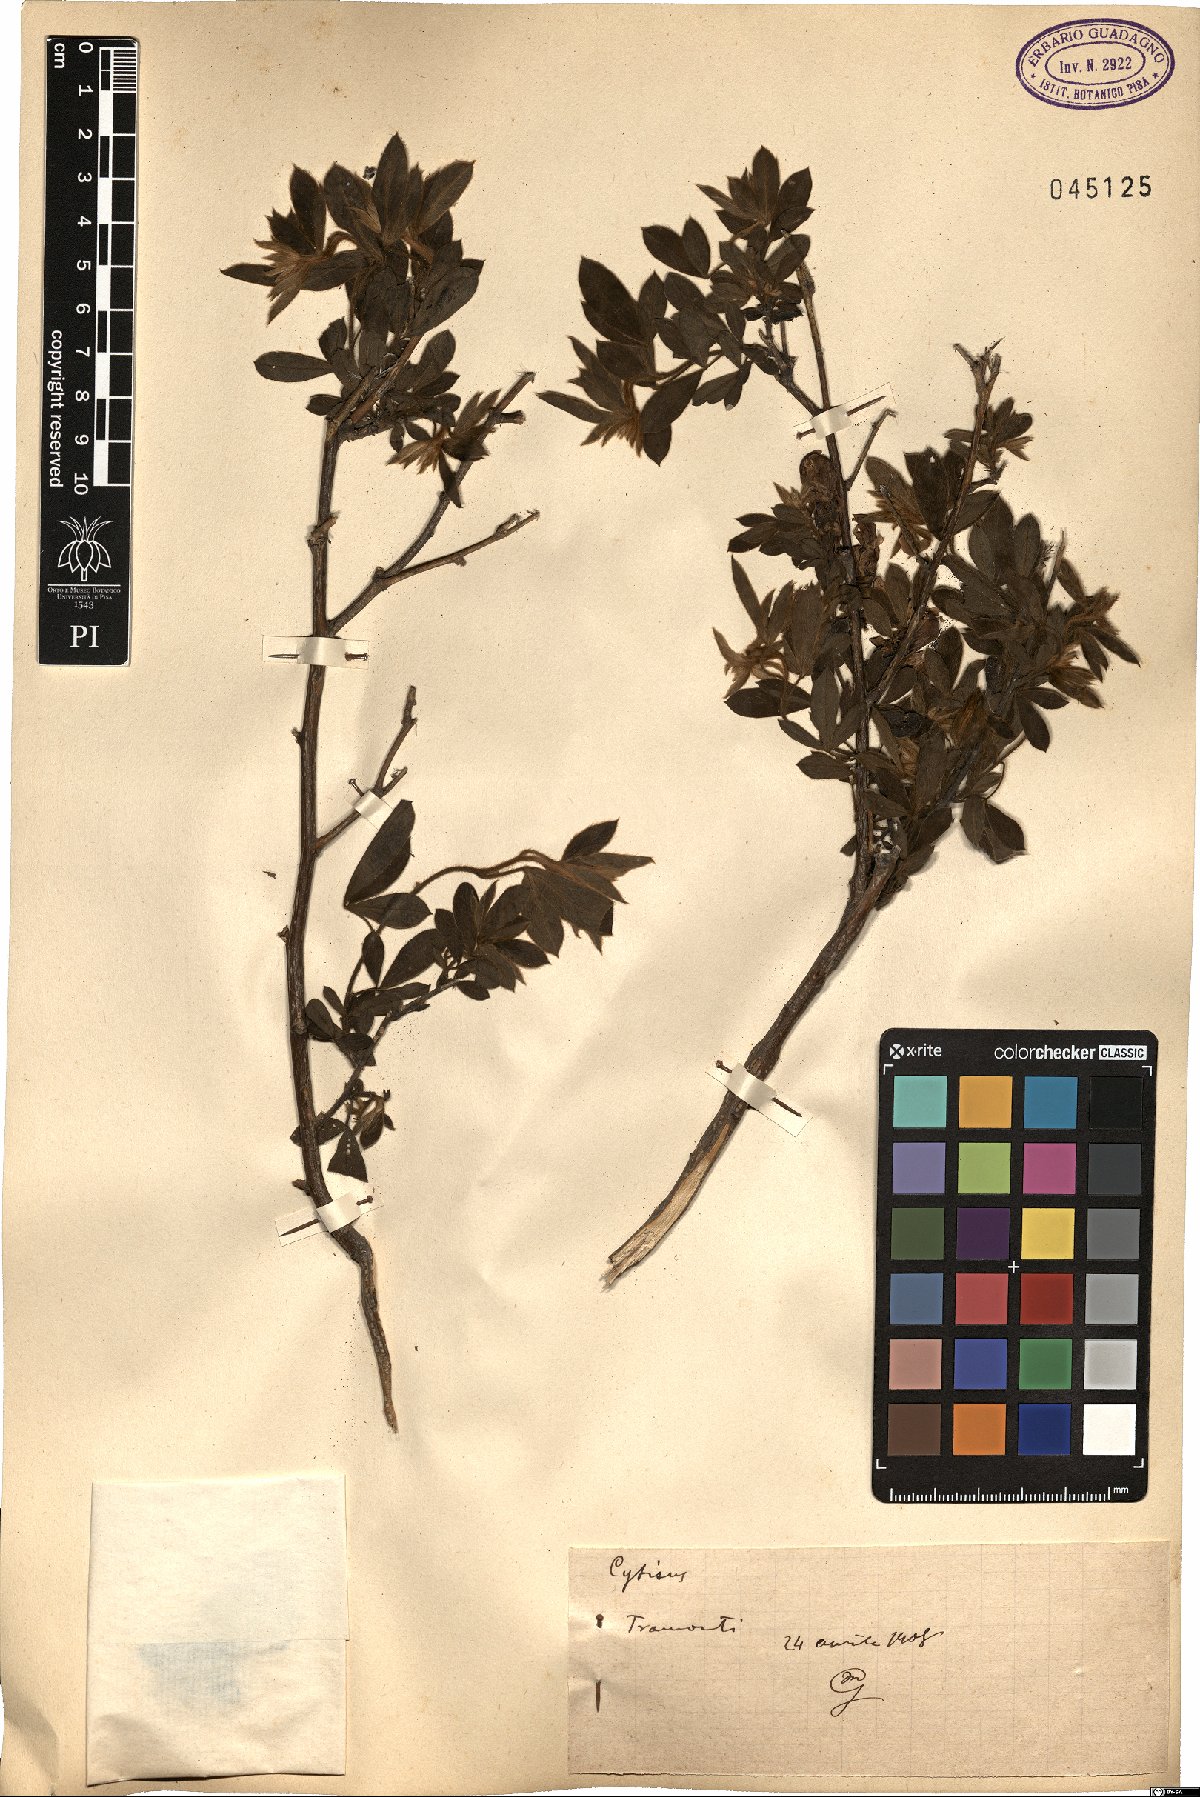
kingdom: Plantae
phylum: Tracheophyta
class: Magnoliopsida
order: Fabales
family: Fabaceae
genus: Cytisus
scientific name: Cytisus
